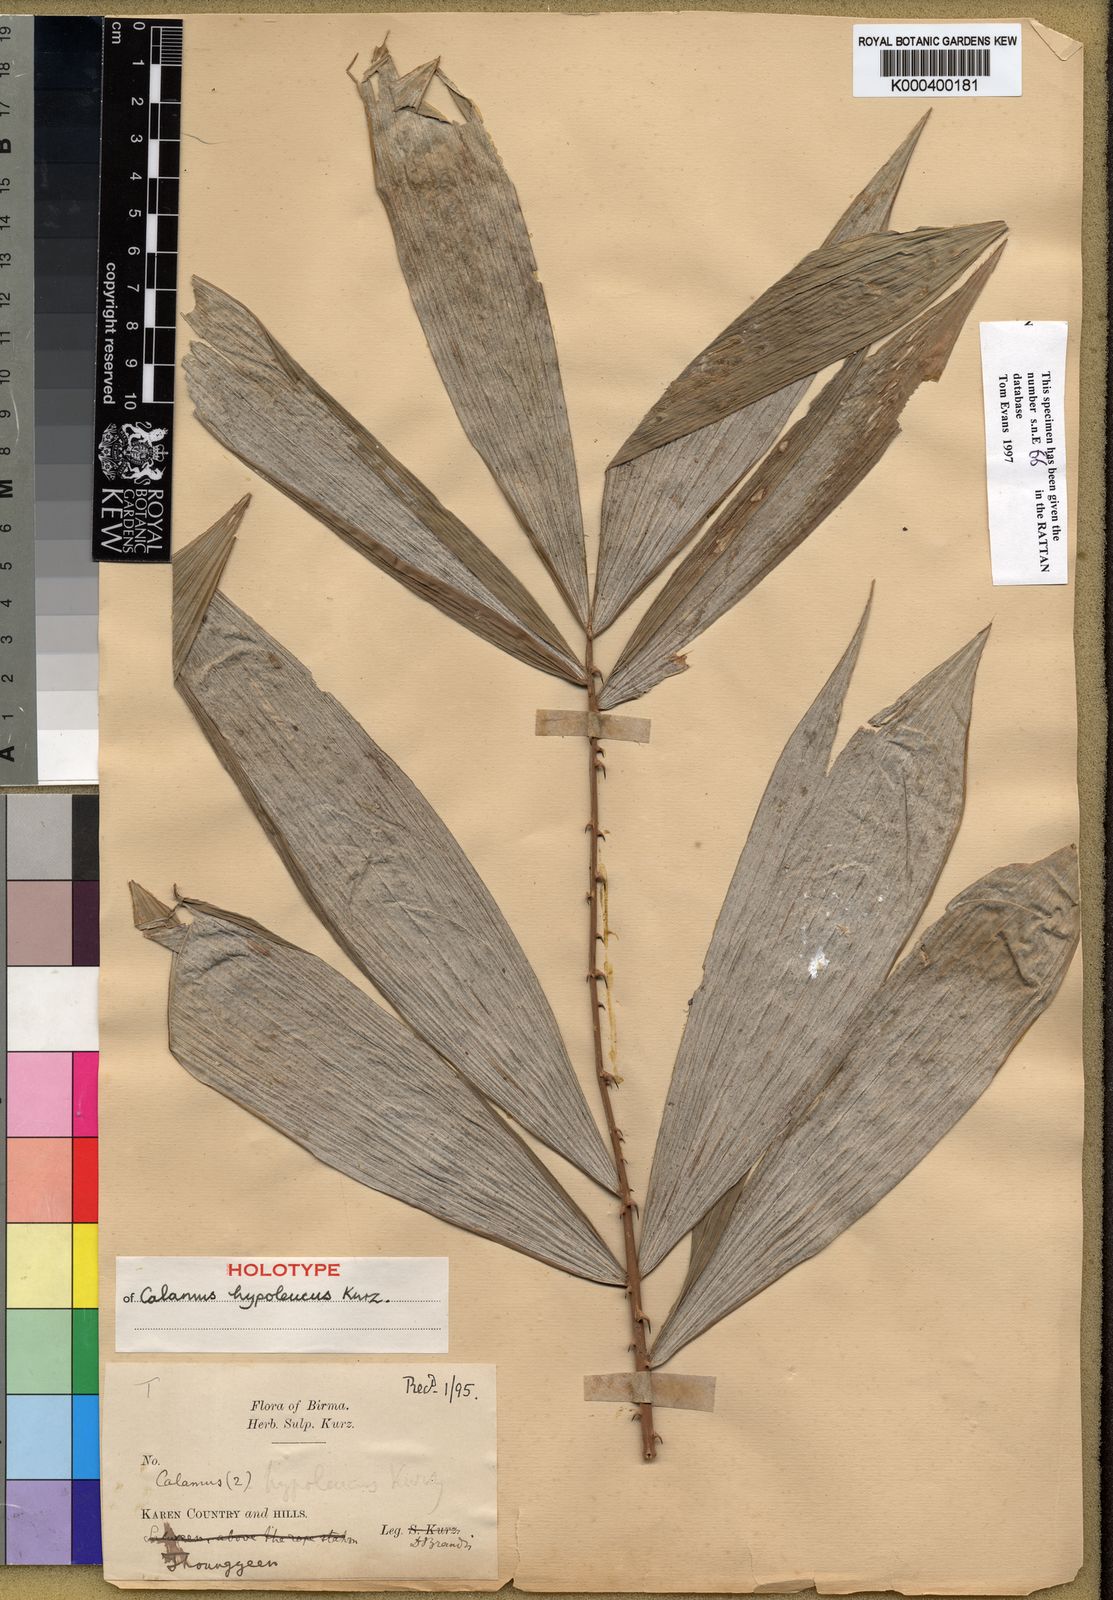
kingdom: Plantae
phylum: Tracheophyta
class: Liliopsida
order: Arecales
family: Arecaceae
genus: Calamus
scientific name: Calamus platyspathus
